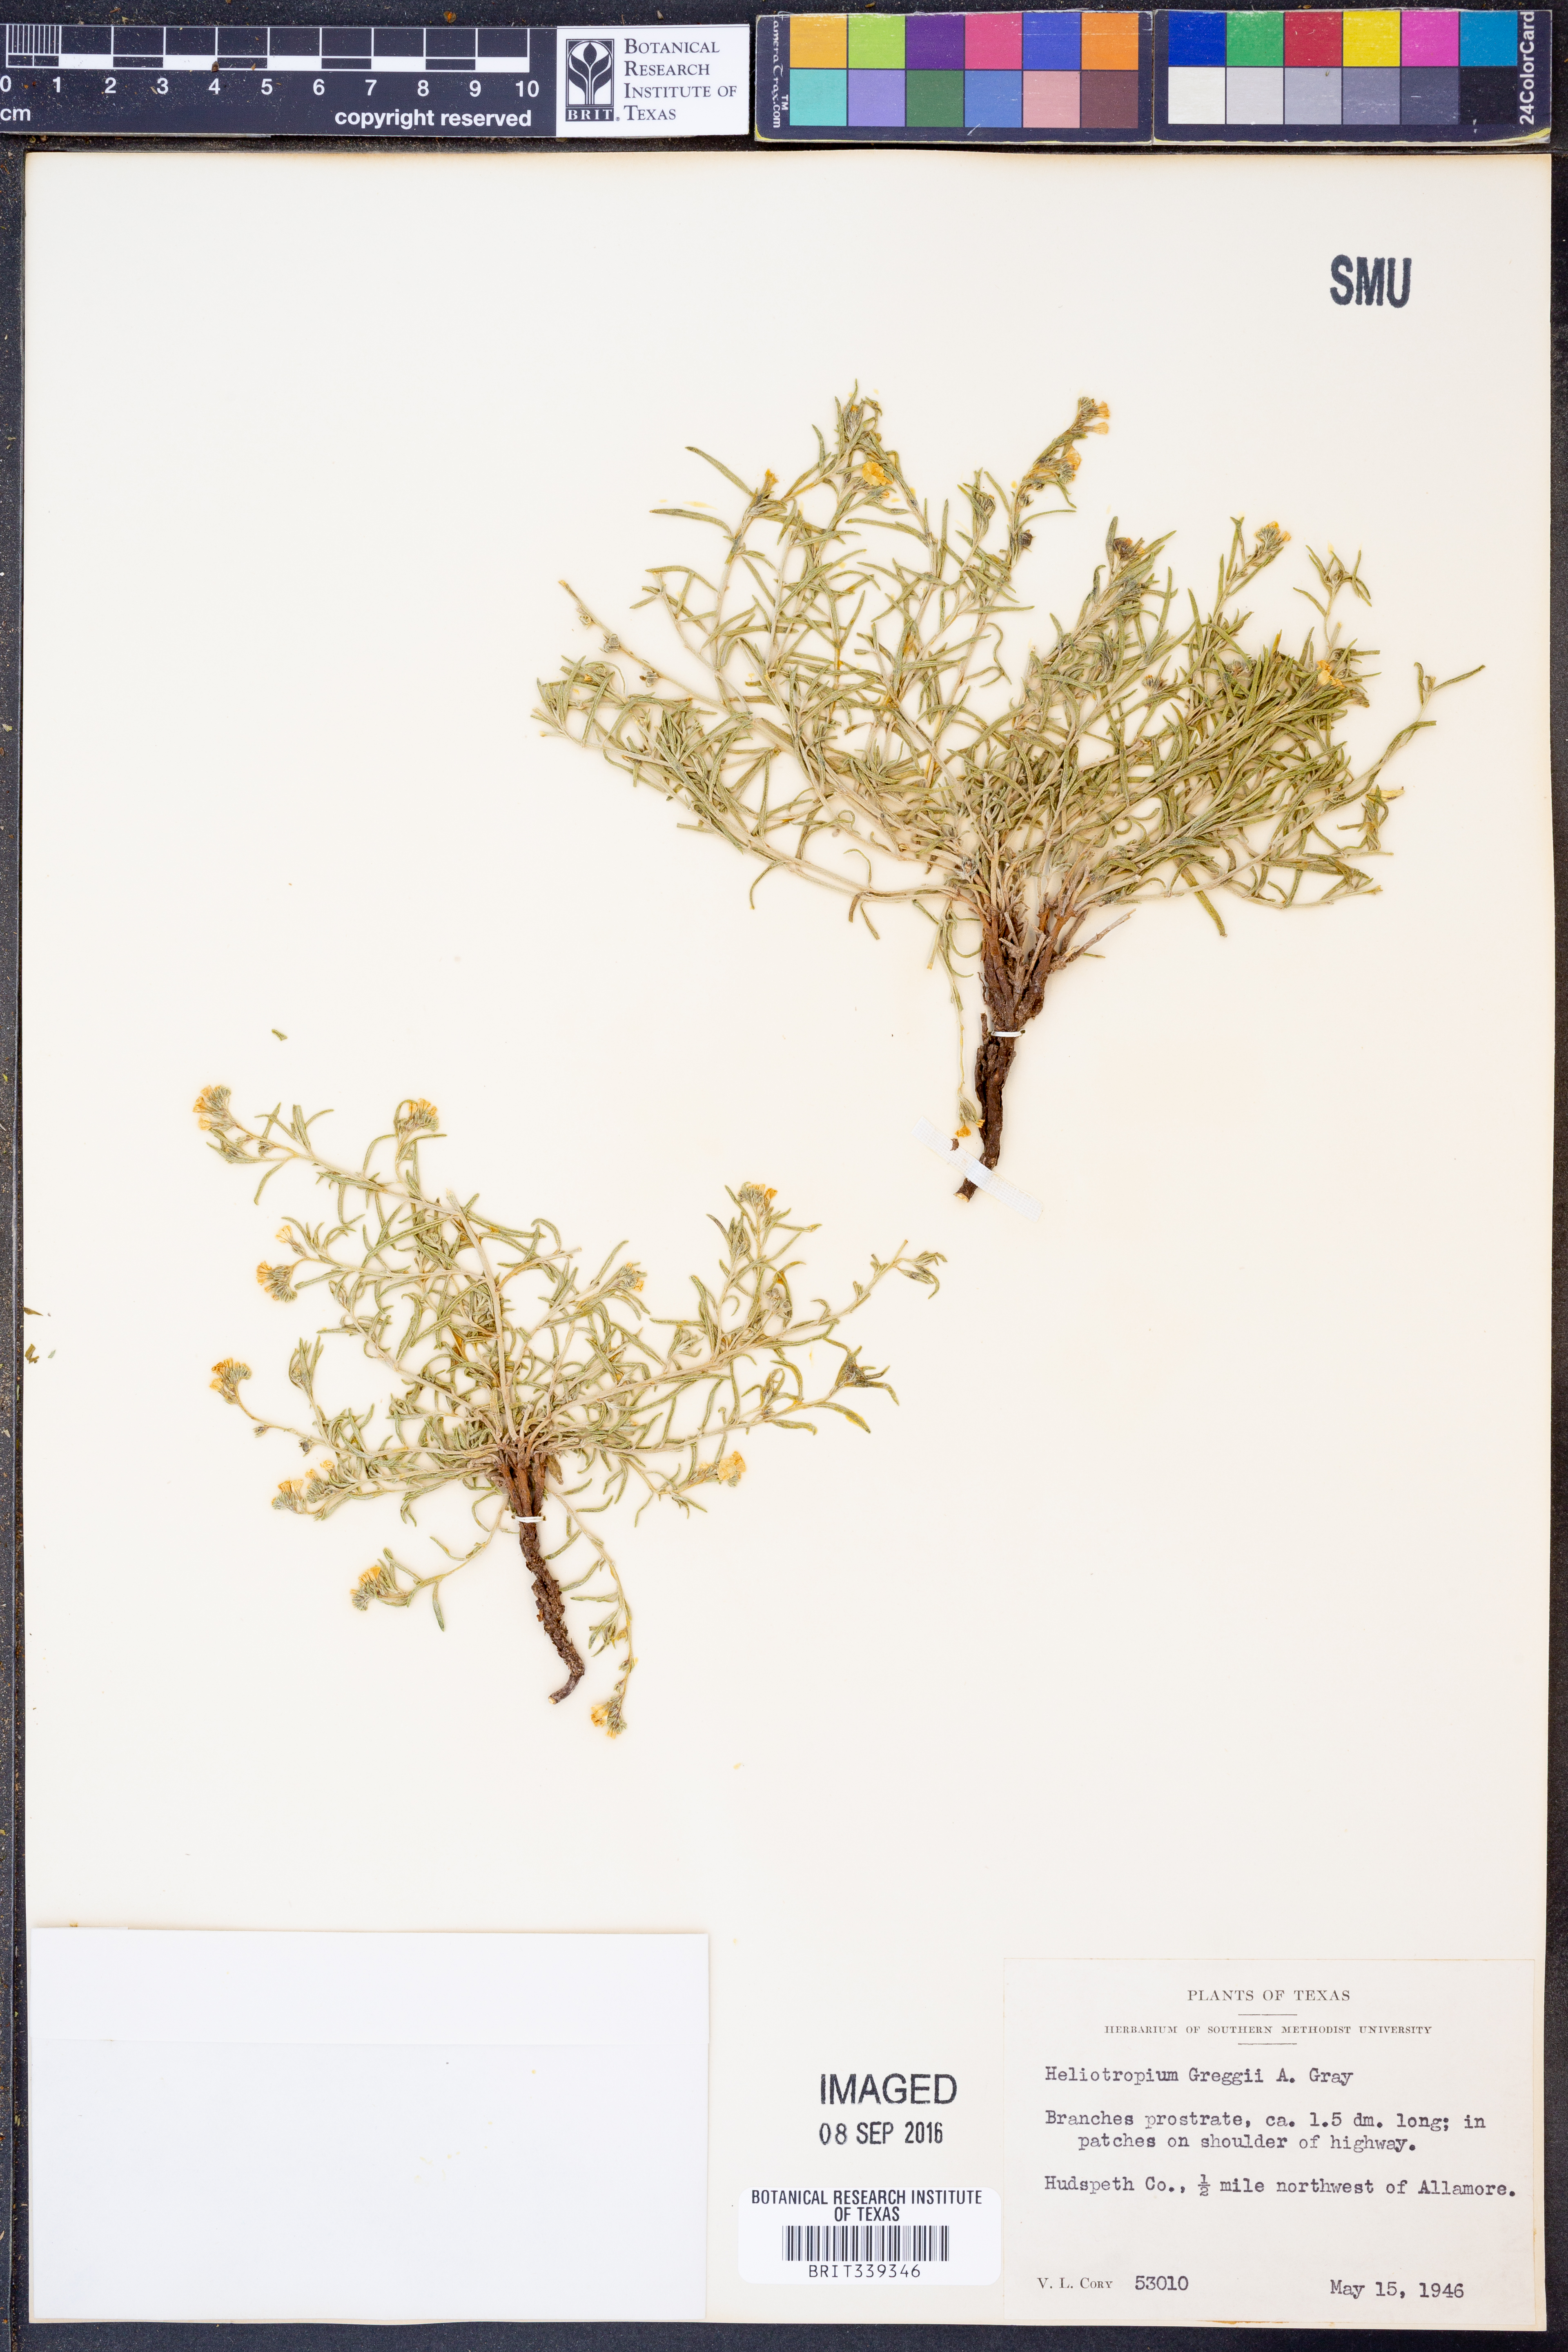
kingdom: Plantae
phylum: Tracheophyta
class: Magnoliopsida
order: Boraginales
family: Heliotropiaceae
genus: Euploca
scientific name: Euploca greggii
